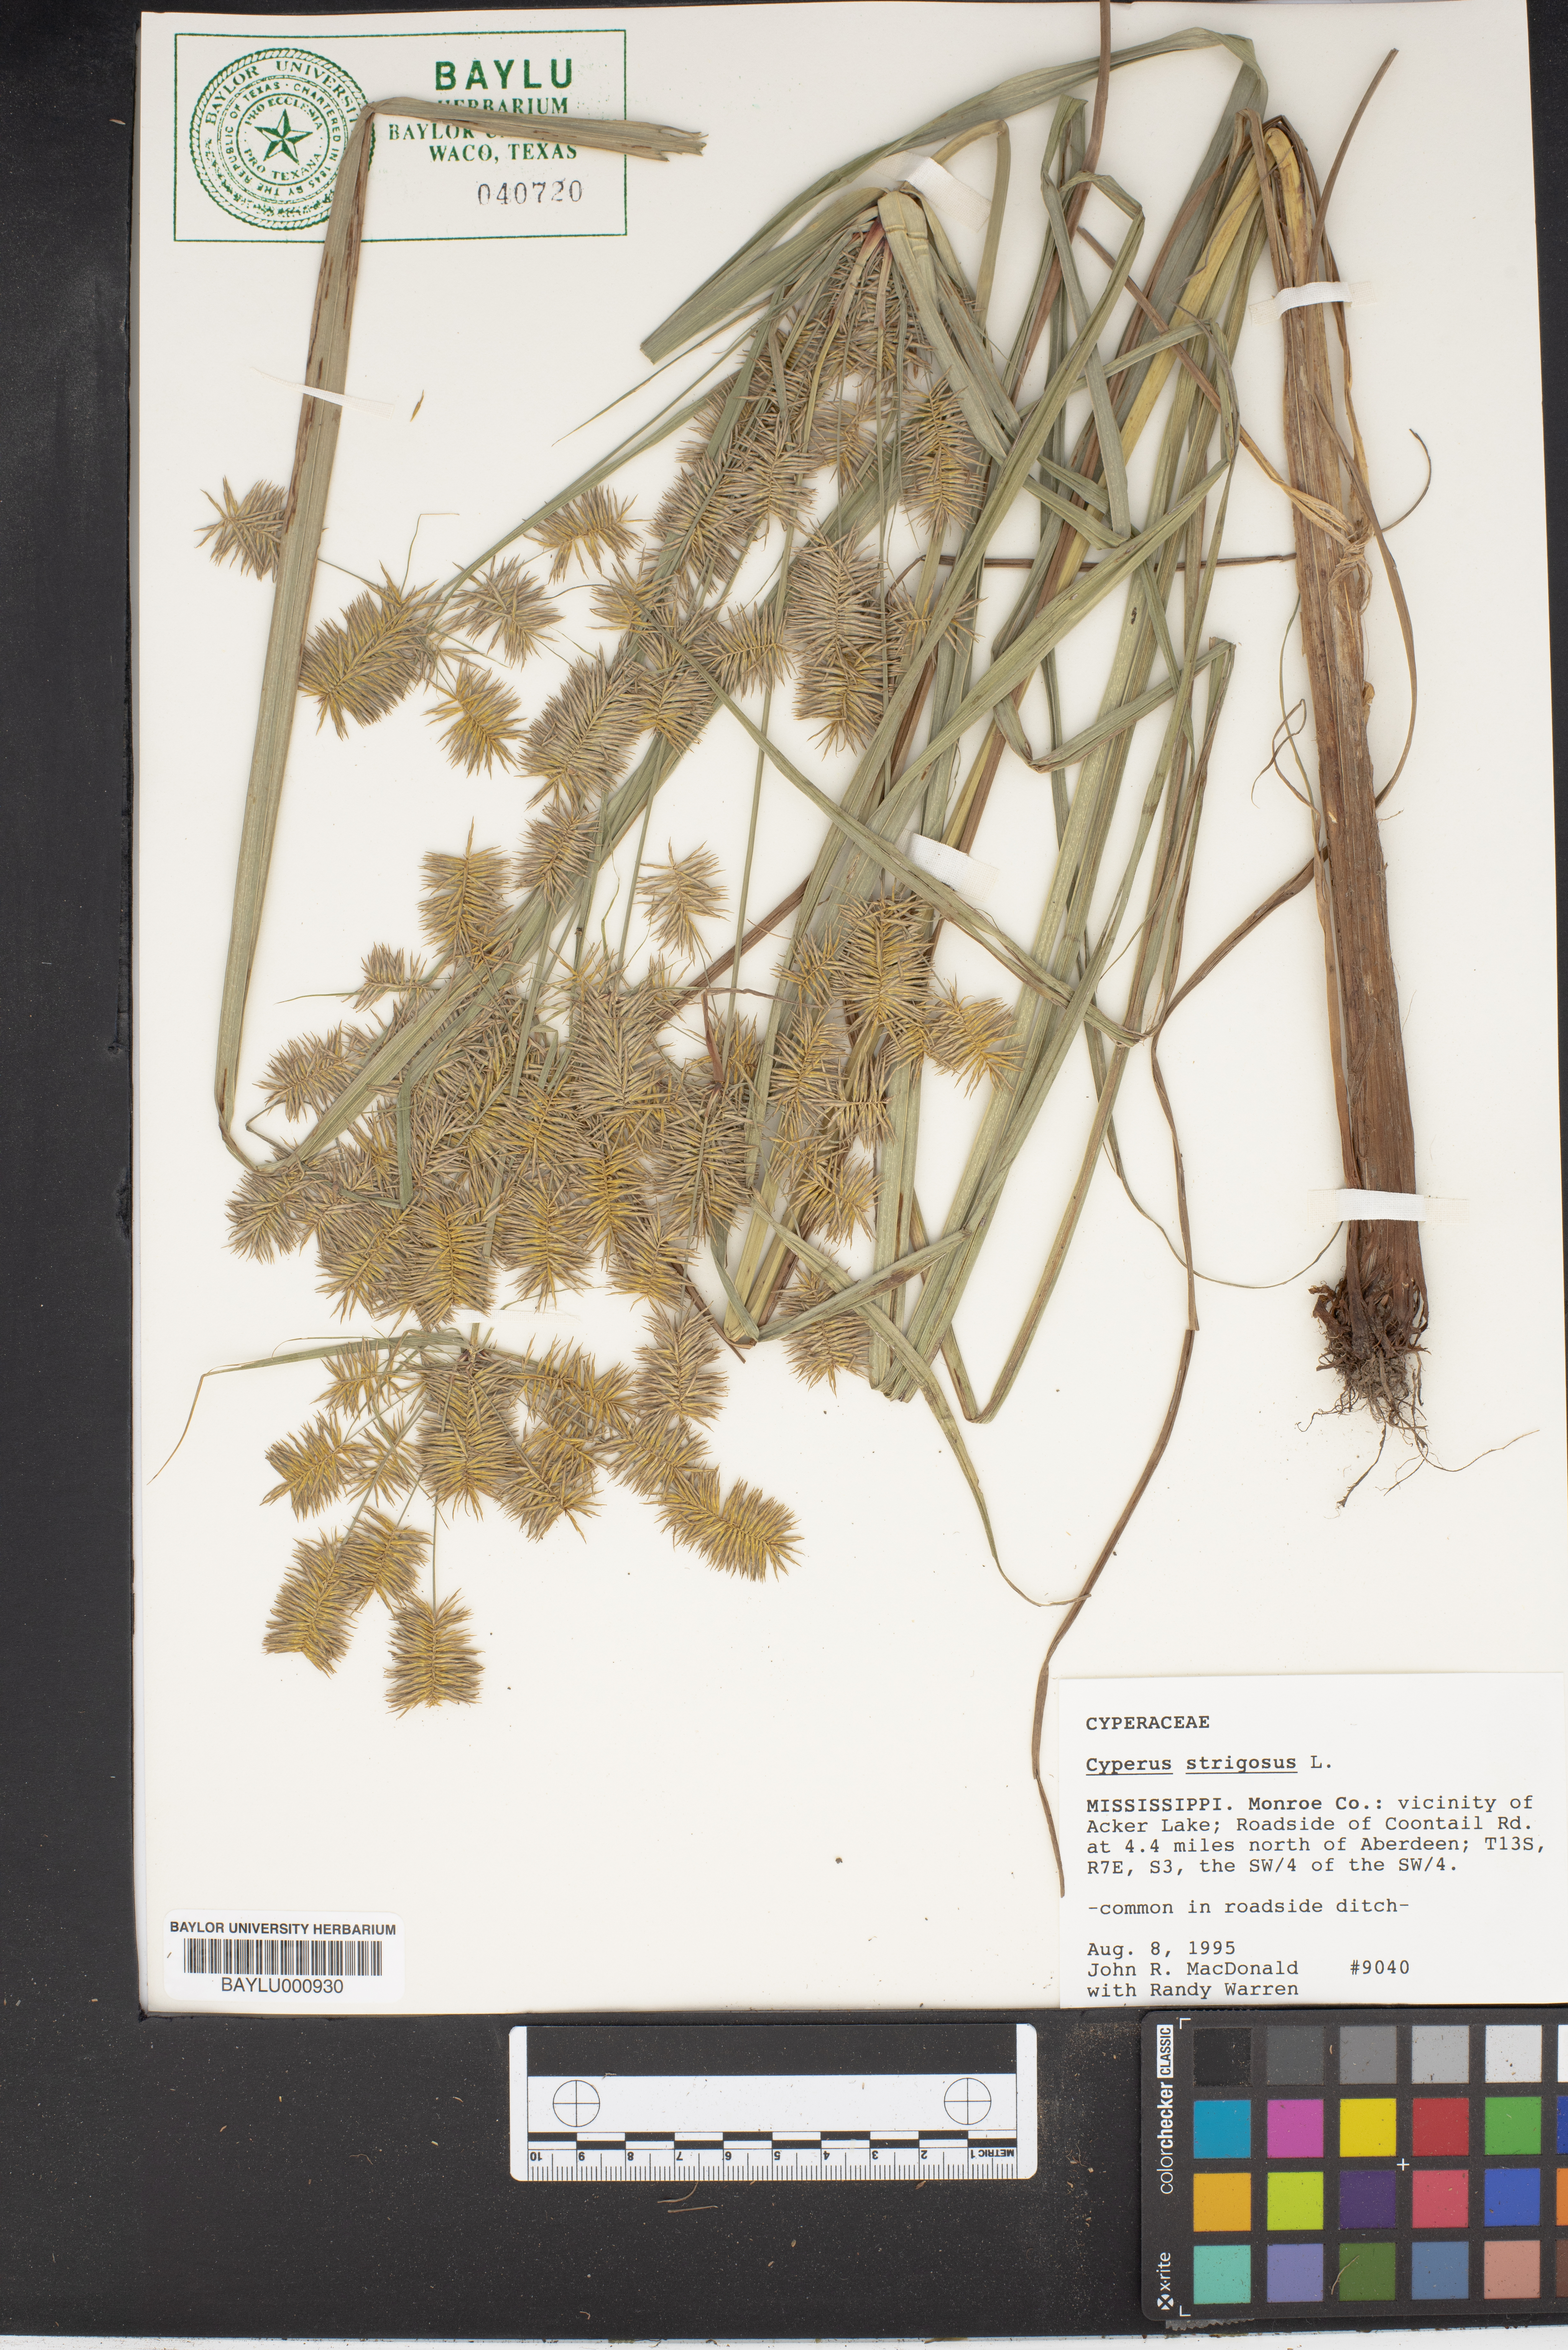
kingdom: Plantae
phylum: Tracheophyta
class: Liliopsida
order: Poales
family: Cyperaceae
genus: Cyperus
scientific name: Cyperus strigosus
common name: False nutsedge
